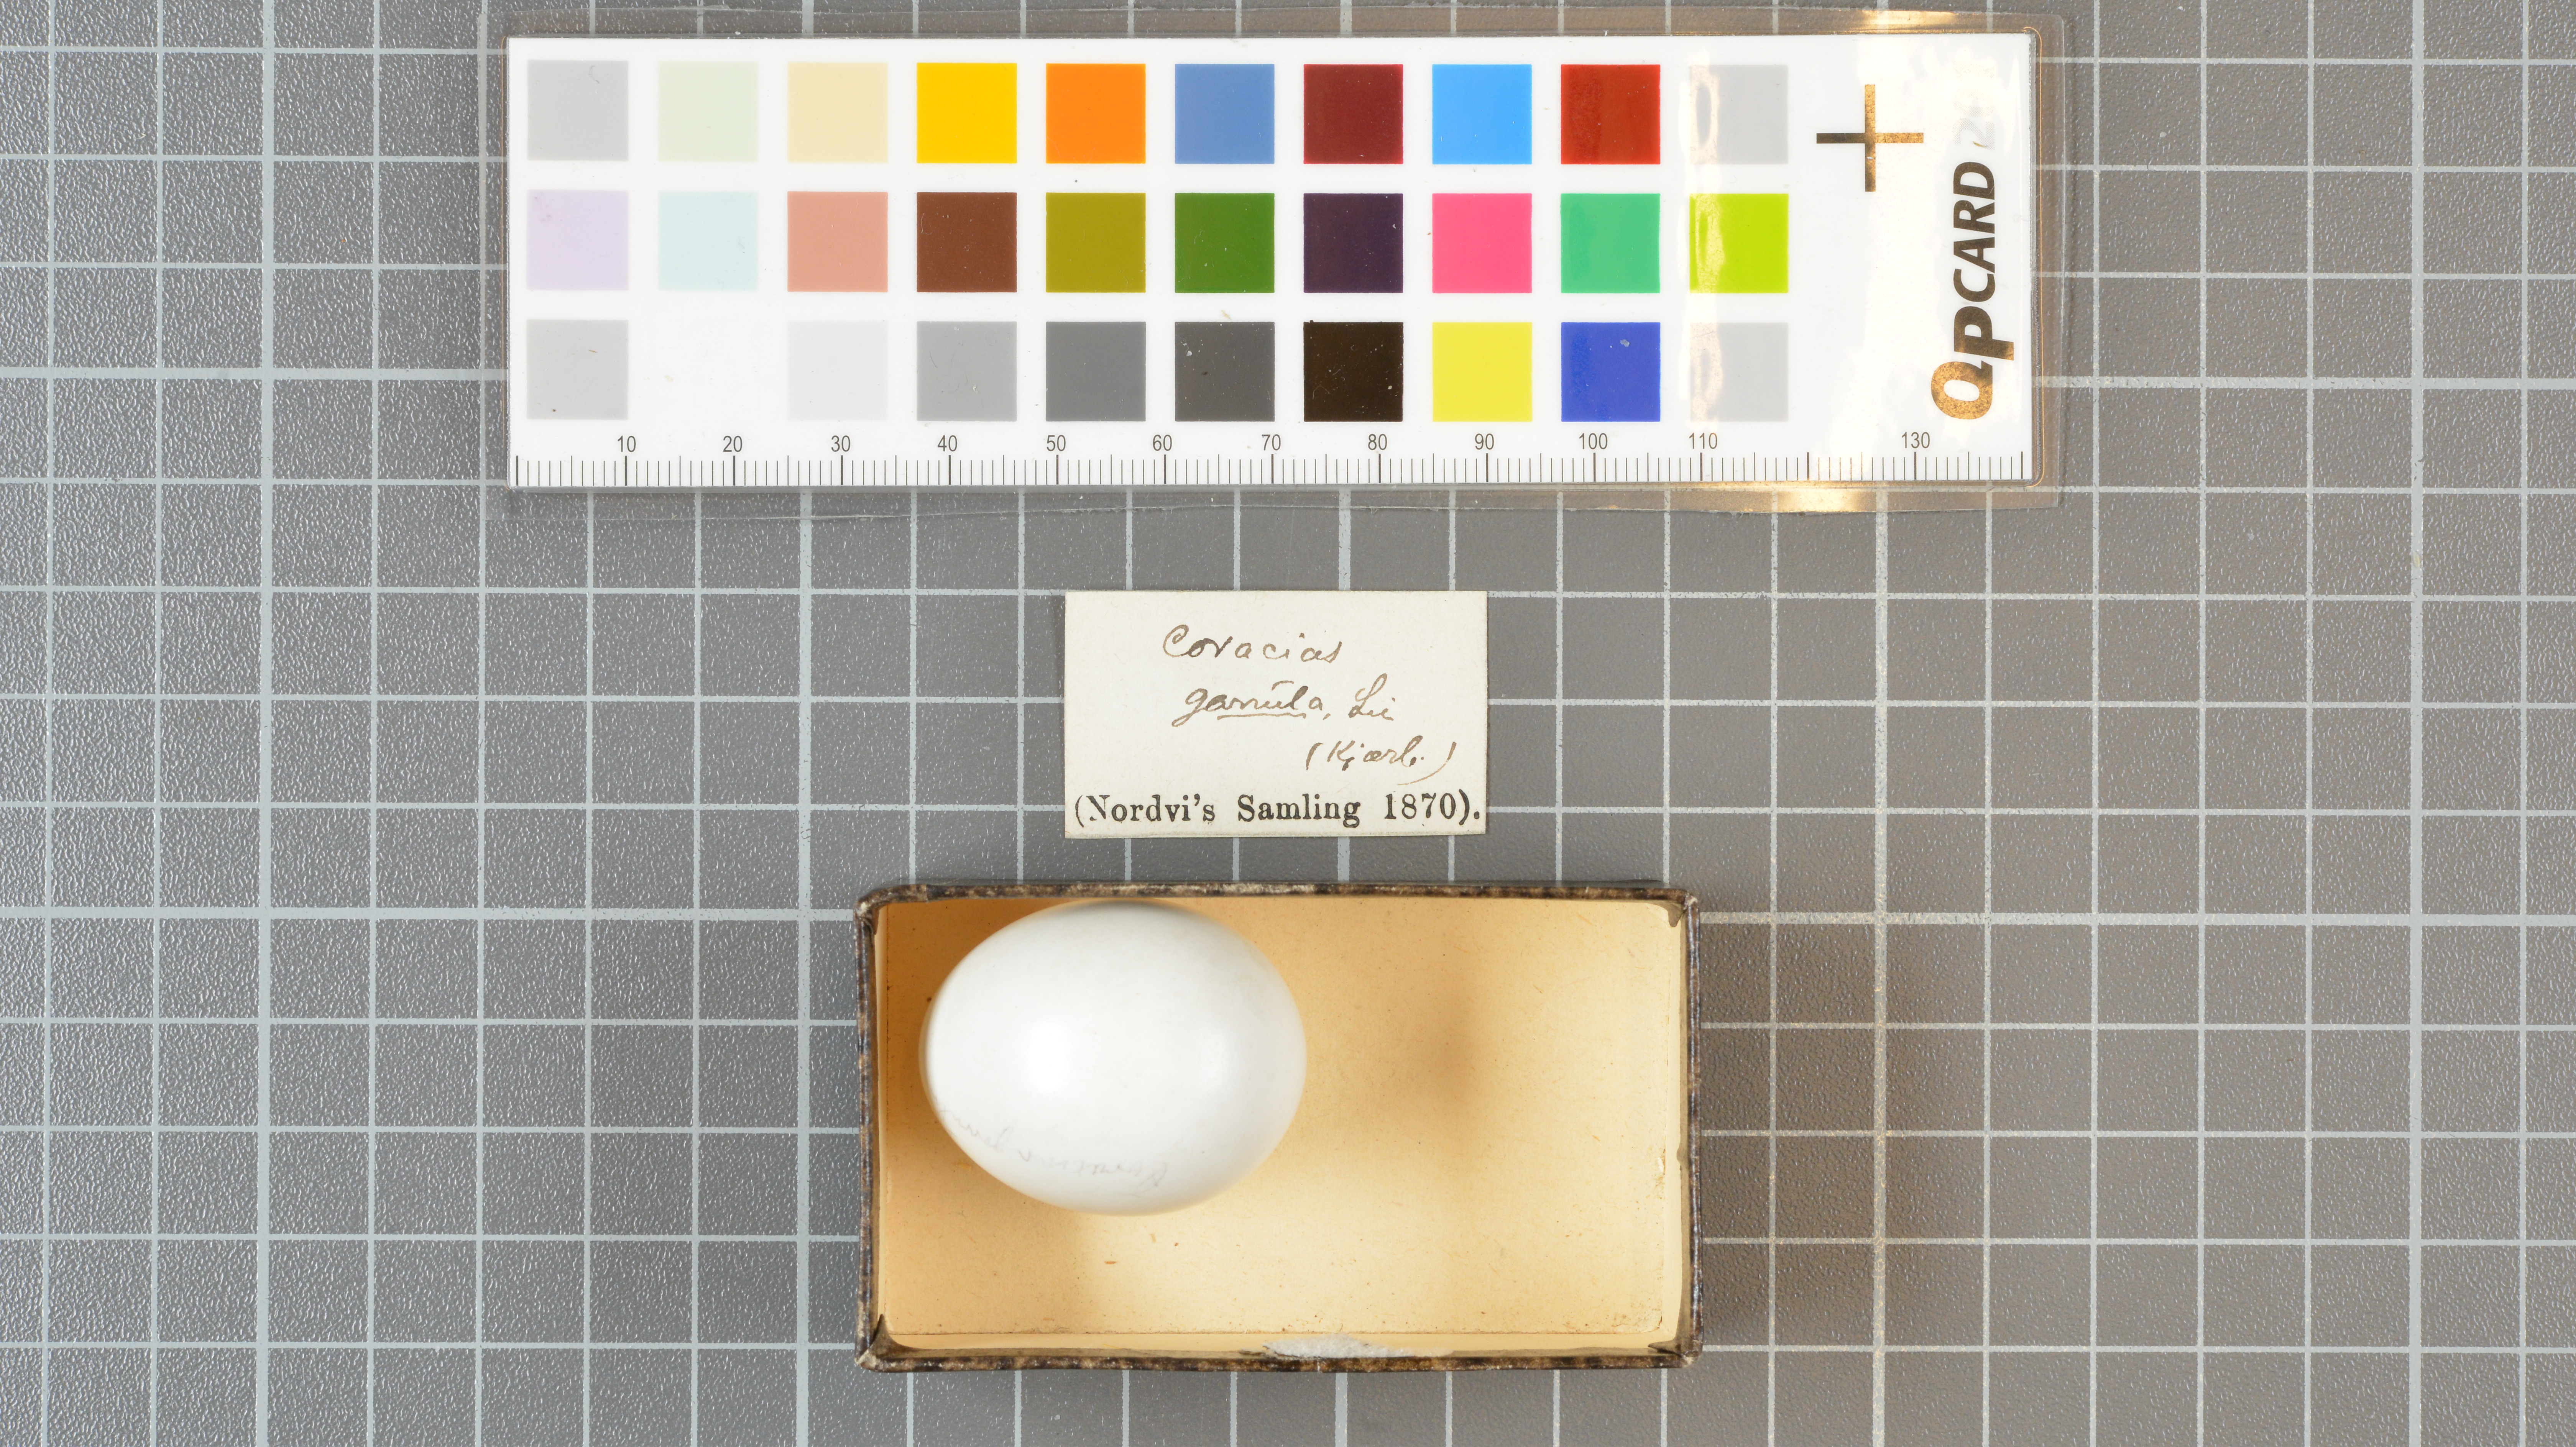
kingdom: Animalia
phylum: Chordata
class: Aves
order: Coraciiformes
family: Coraciidae
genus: Coracias
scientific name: Coracias garrulus
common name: European roller
